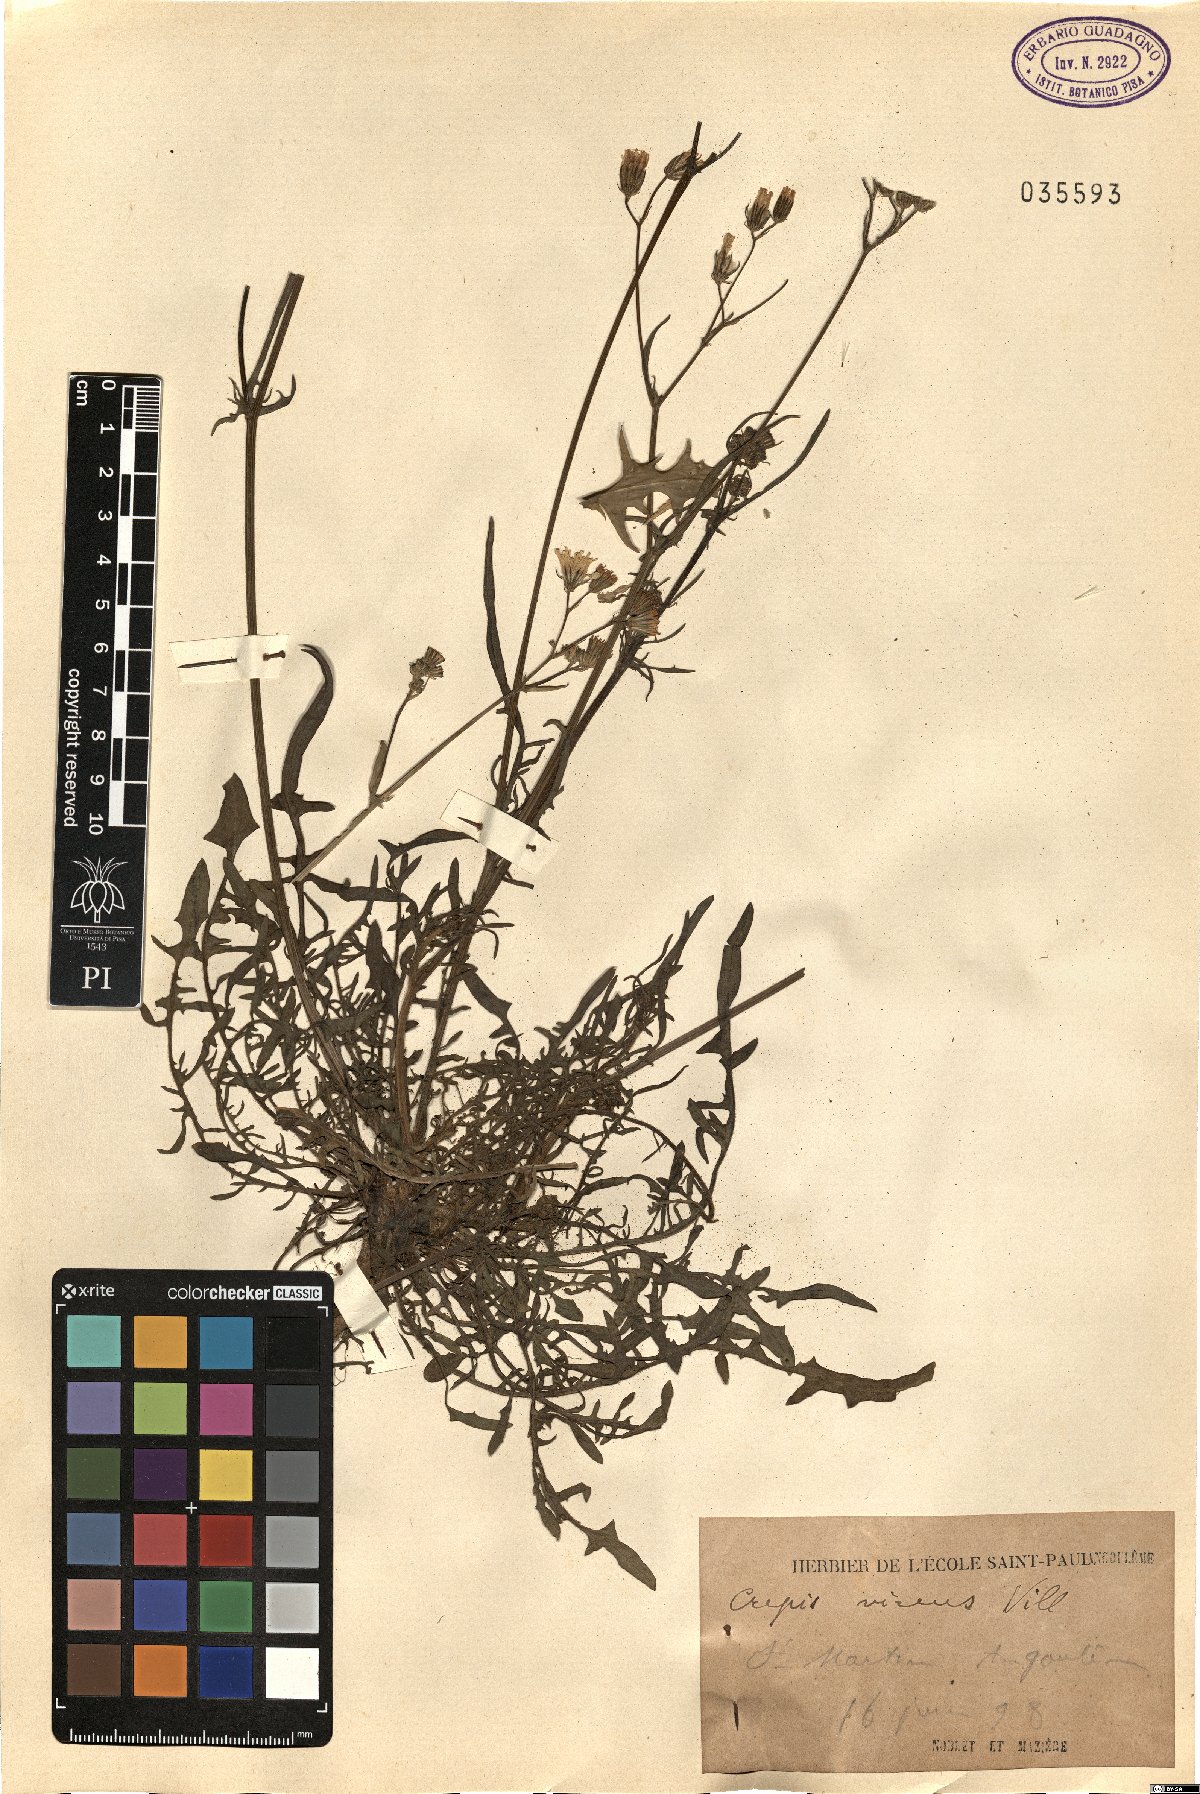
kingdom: Plantae
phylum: Tracheophyta
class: Magnoliopsida
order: Asterales
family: Asteraceae
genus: Crepis
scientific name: Crepis capillaris
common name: Smooth hawksbeard
